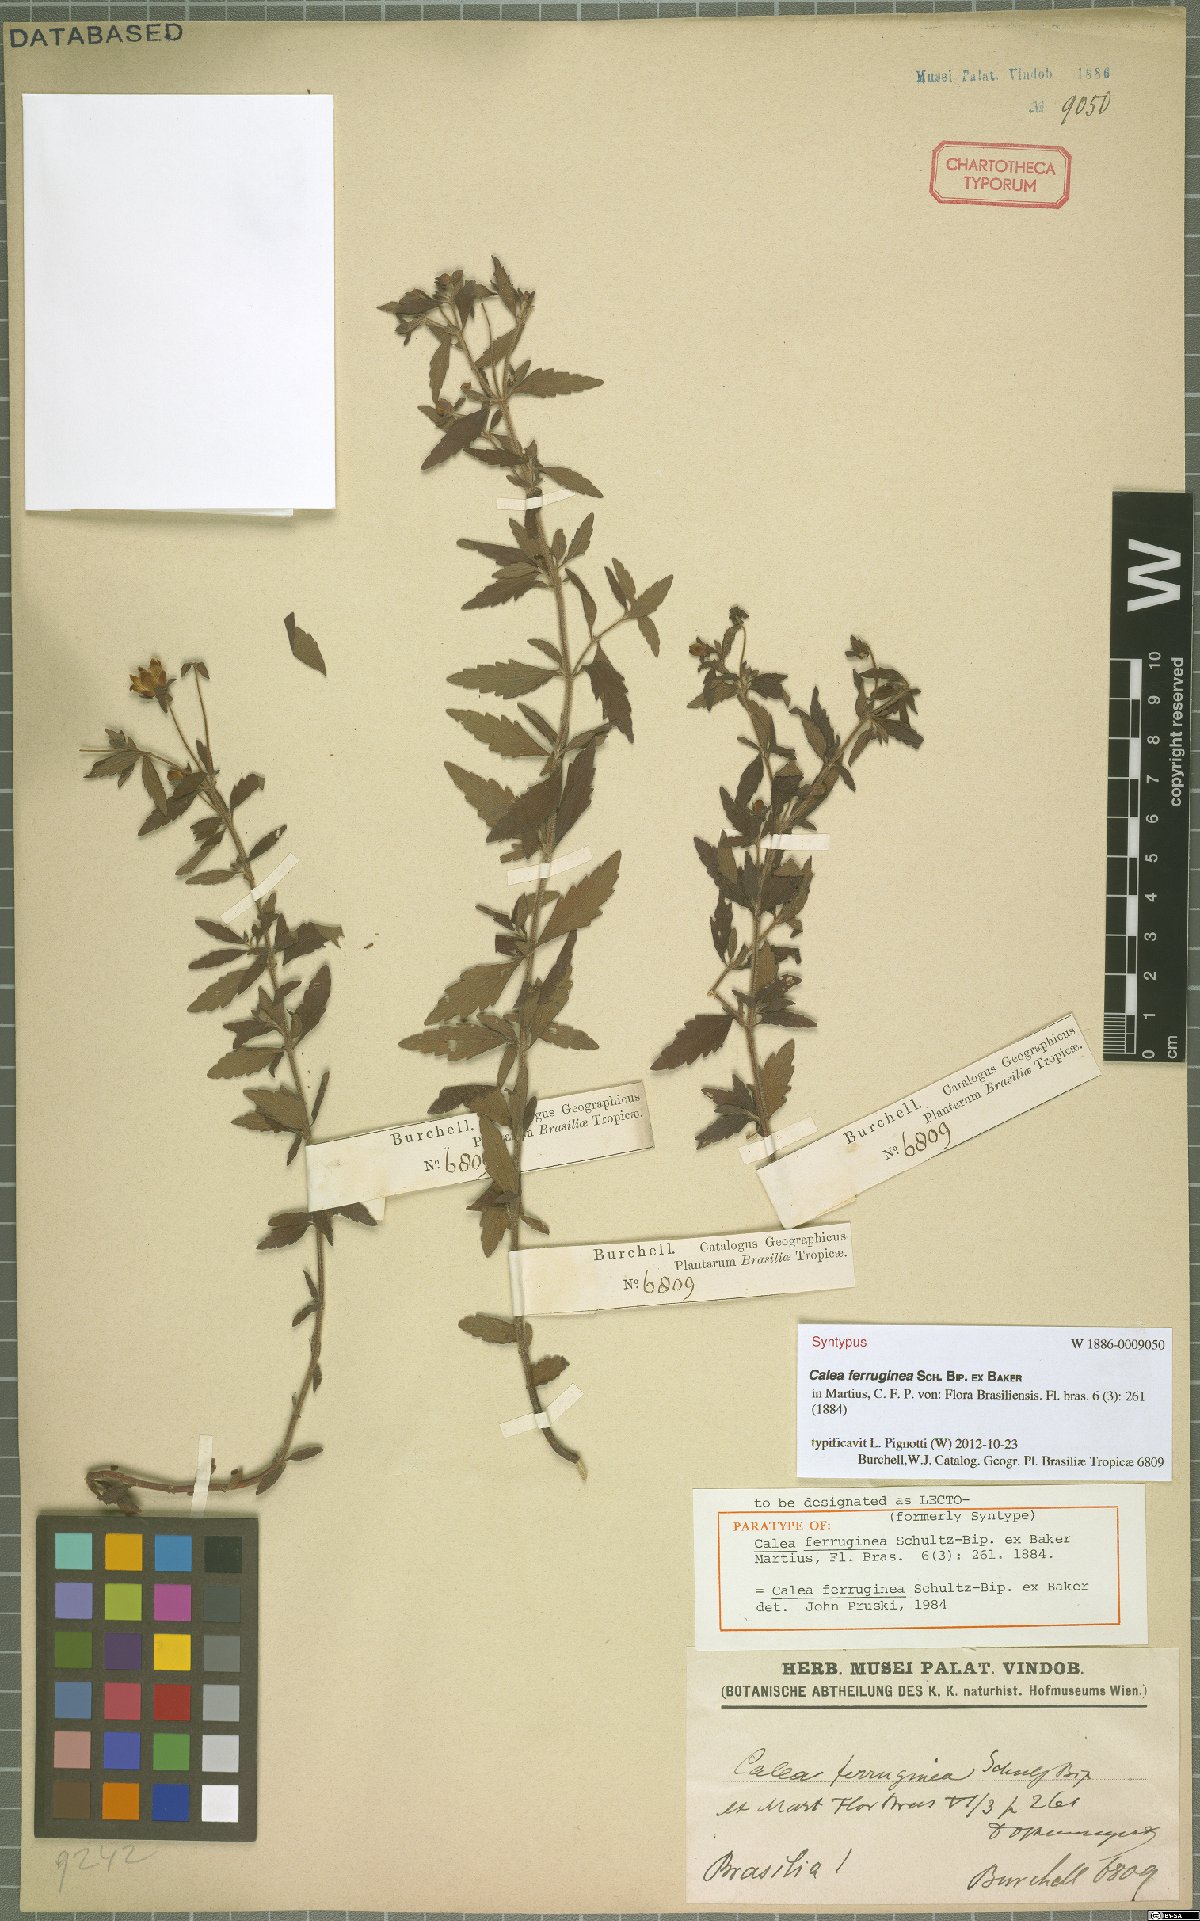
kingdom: Plantae
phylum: Tracheophyta
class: Magnoliopsida
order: Asterales
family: Asteraceae
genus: Calea
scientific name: Calea ferruginea
